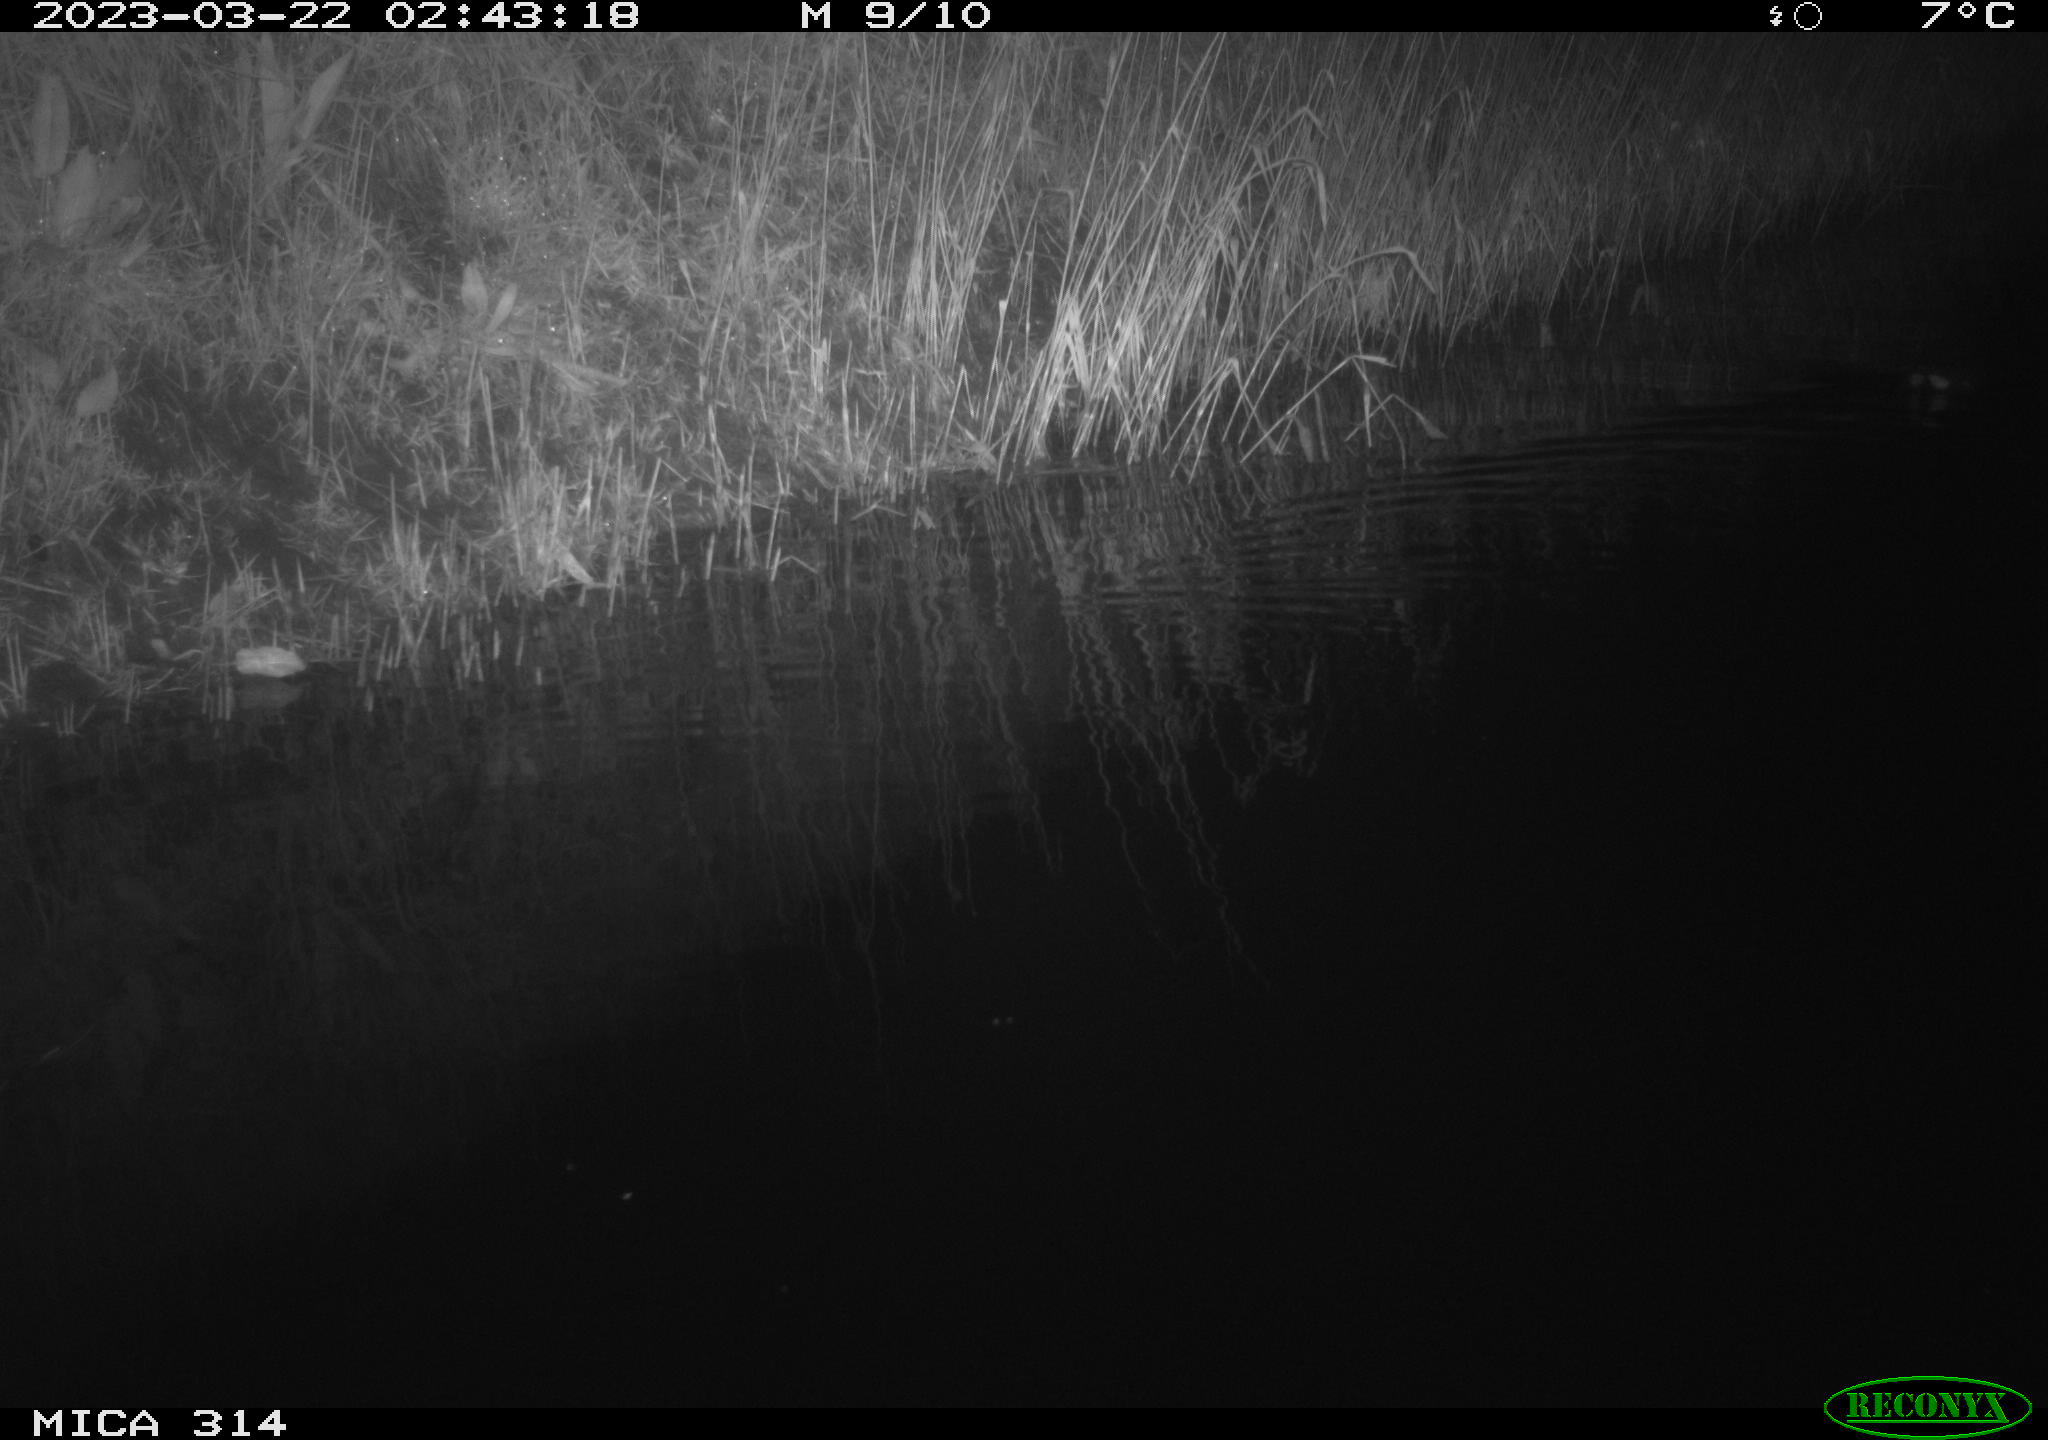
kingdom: Animalia
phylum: Chordata
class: Aves
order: Gruiformes
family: Rallidae
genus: Gallinula
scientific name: Gallinula chloropus
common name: Common moorhen
